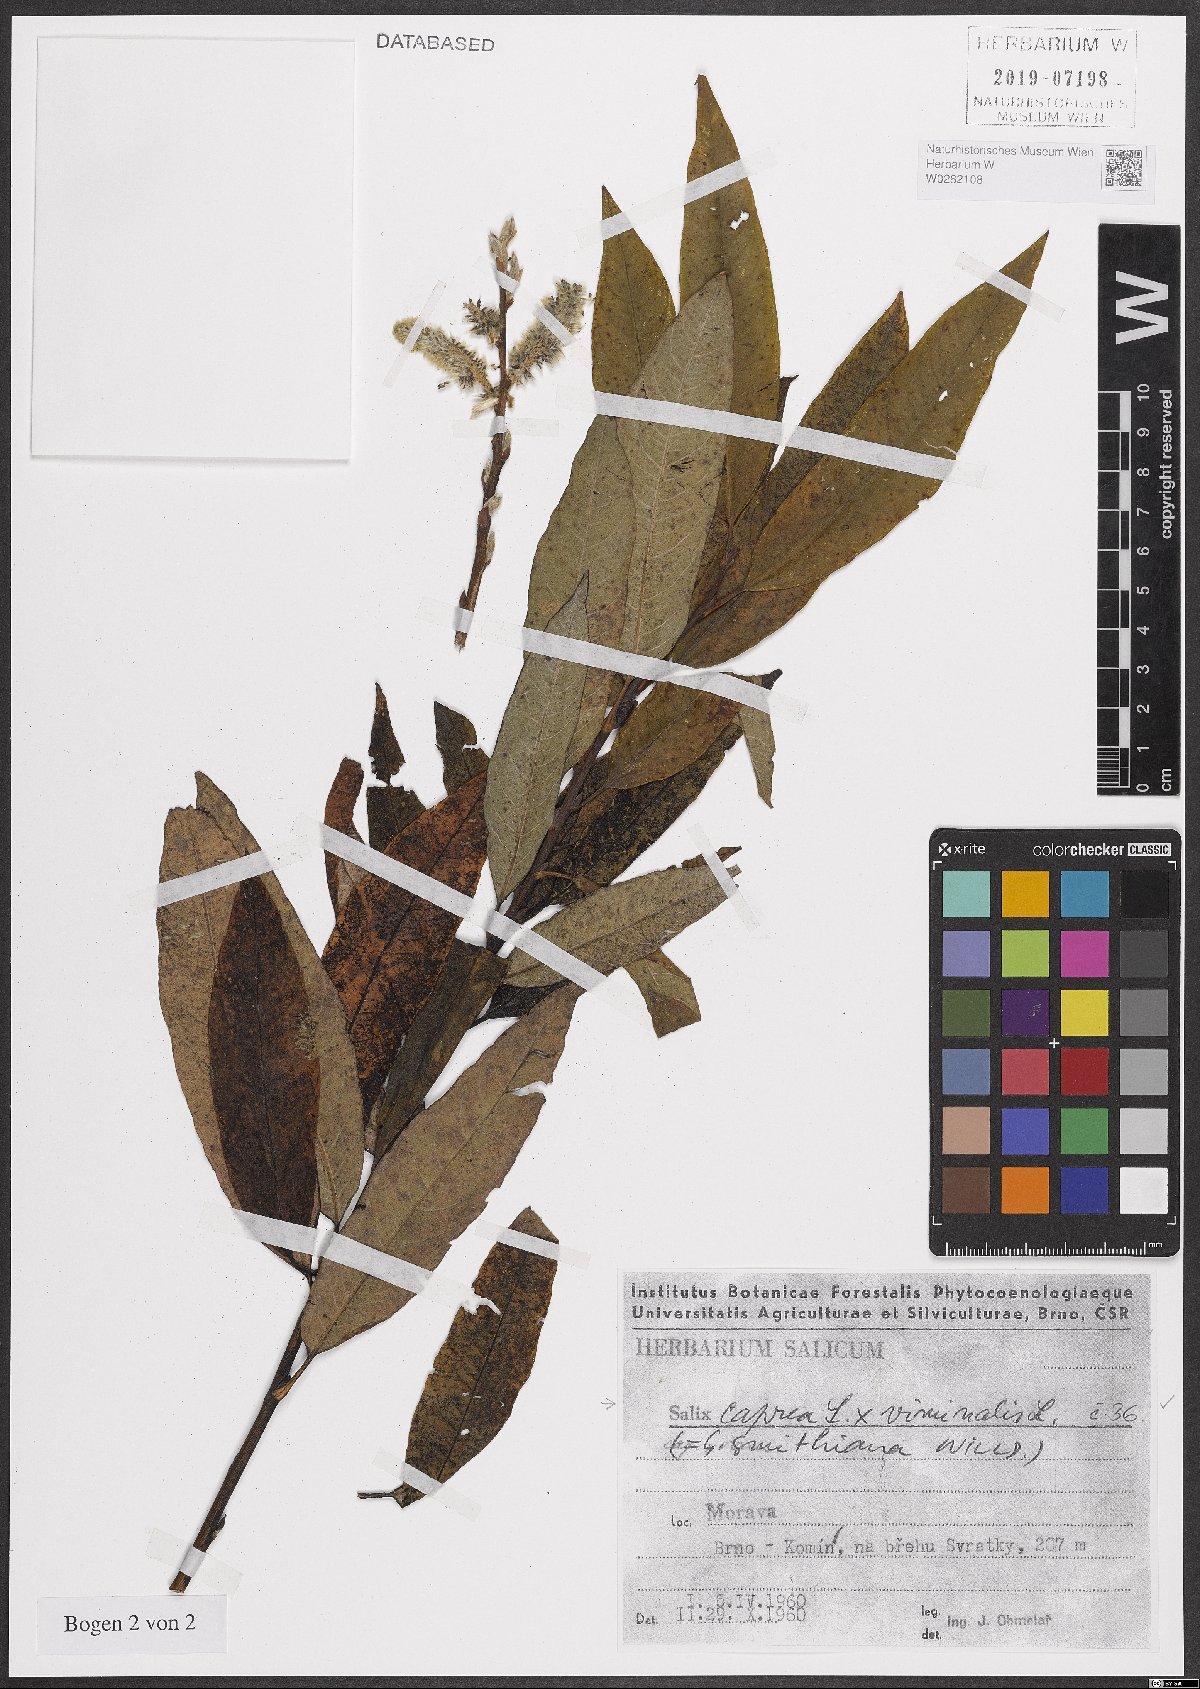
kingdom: Plantae
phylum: Tracheophyta
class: Magnoliopsida
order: Malpighiales
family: Salicaceae
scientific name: Salicaceae
